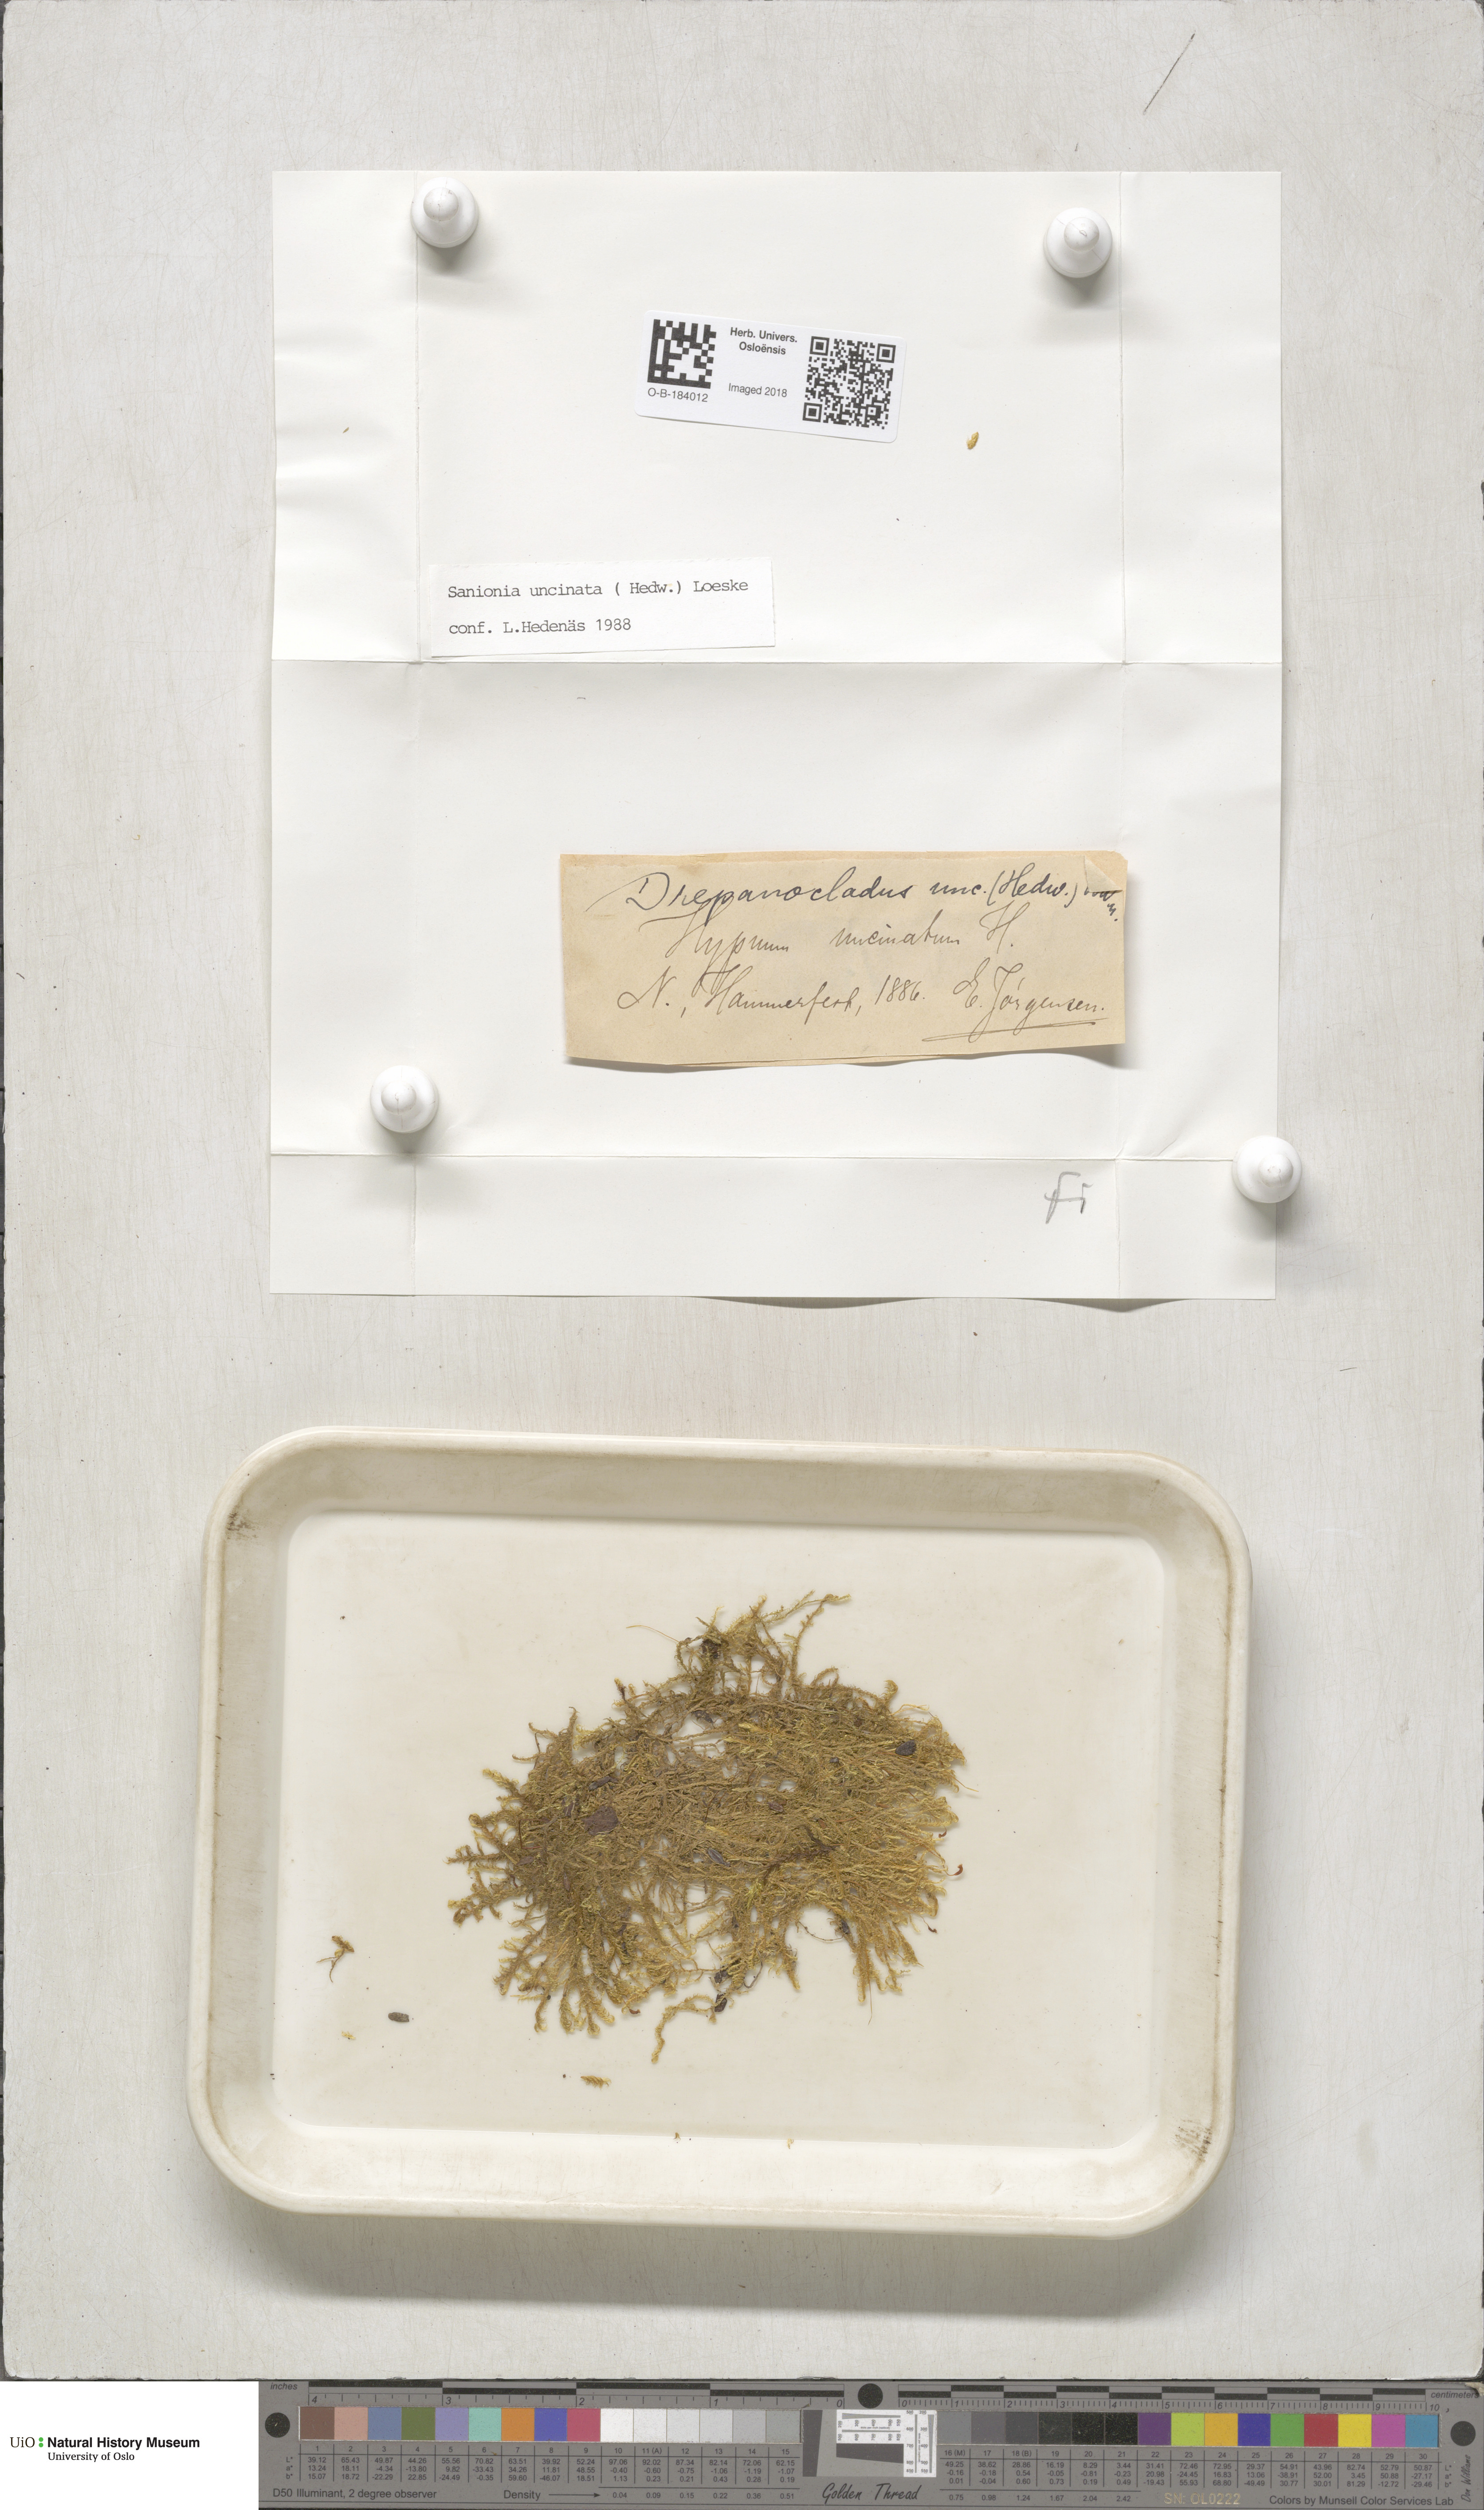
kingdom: Plantae
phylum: Bryophyta
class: Bryopsida
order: Hypnales
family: Scorpidiaceae
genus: Sanionia
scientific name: Sanionia uncinata
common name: Sickle moss
